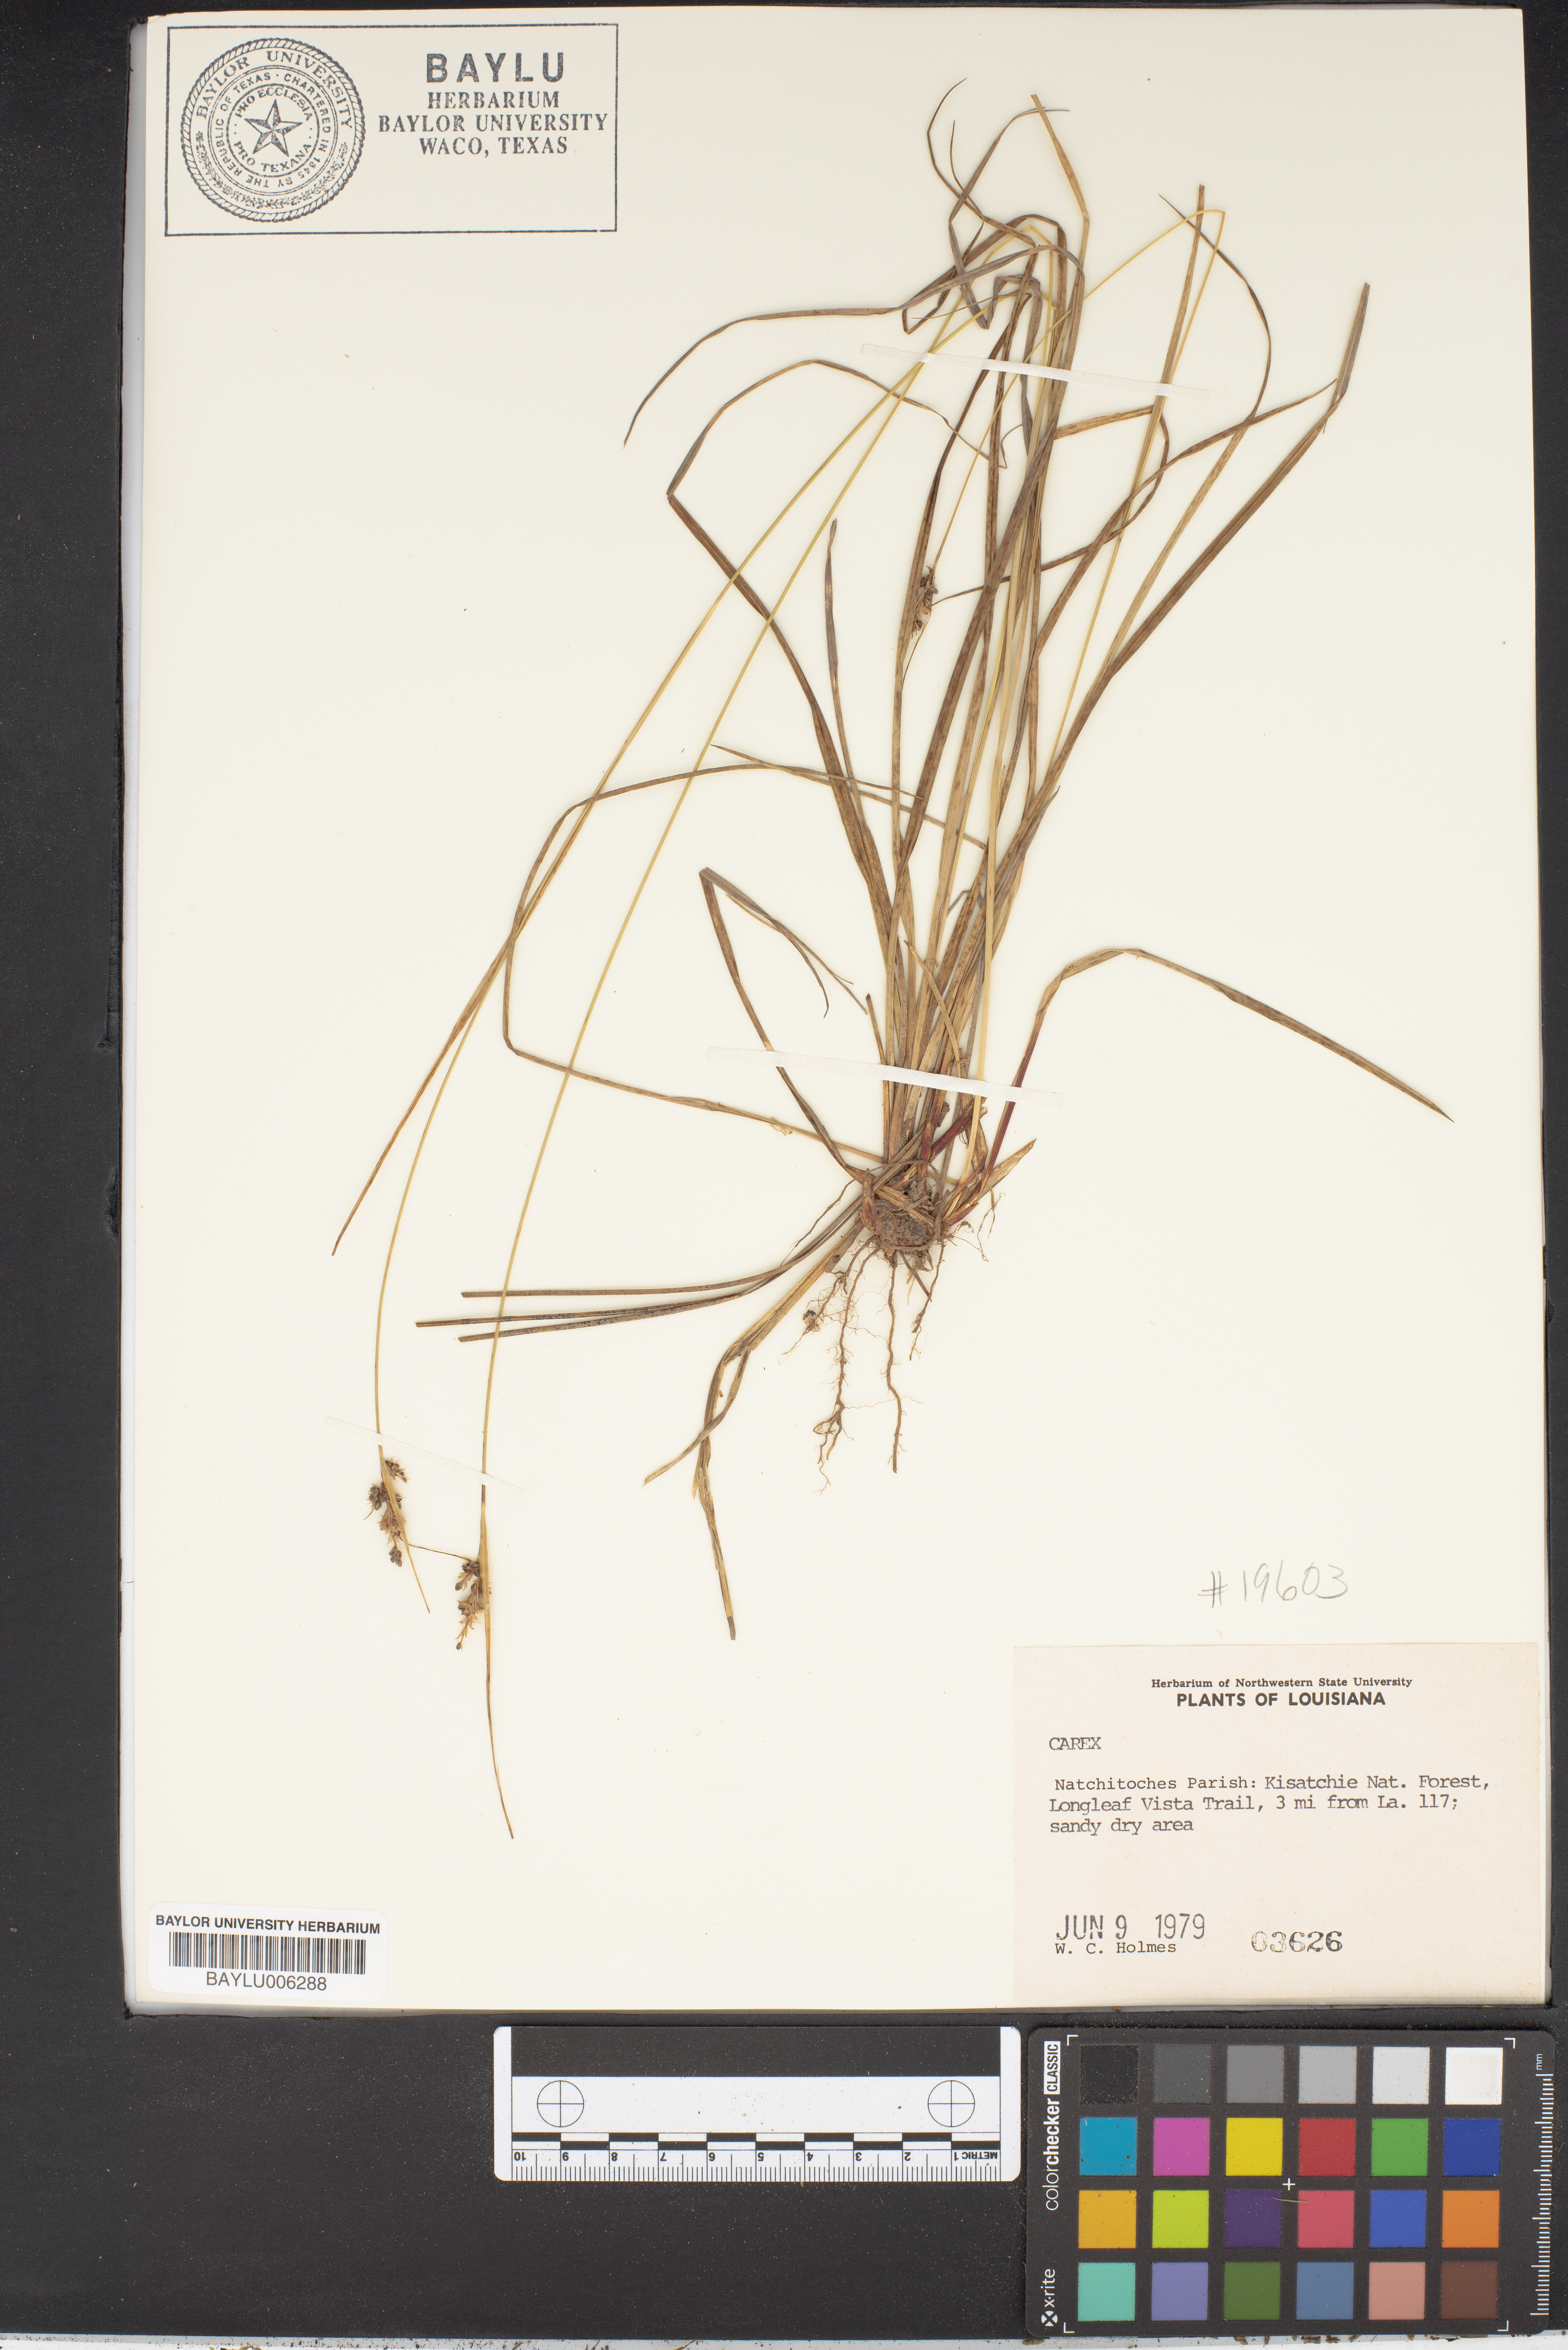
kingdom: Plantae
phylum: Tracheophyta
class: Liliopsida
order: Poales
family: Cyperaceae
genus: Carex
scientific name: Carex
